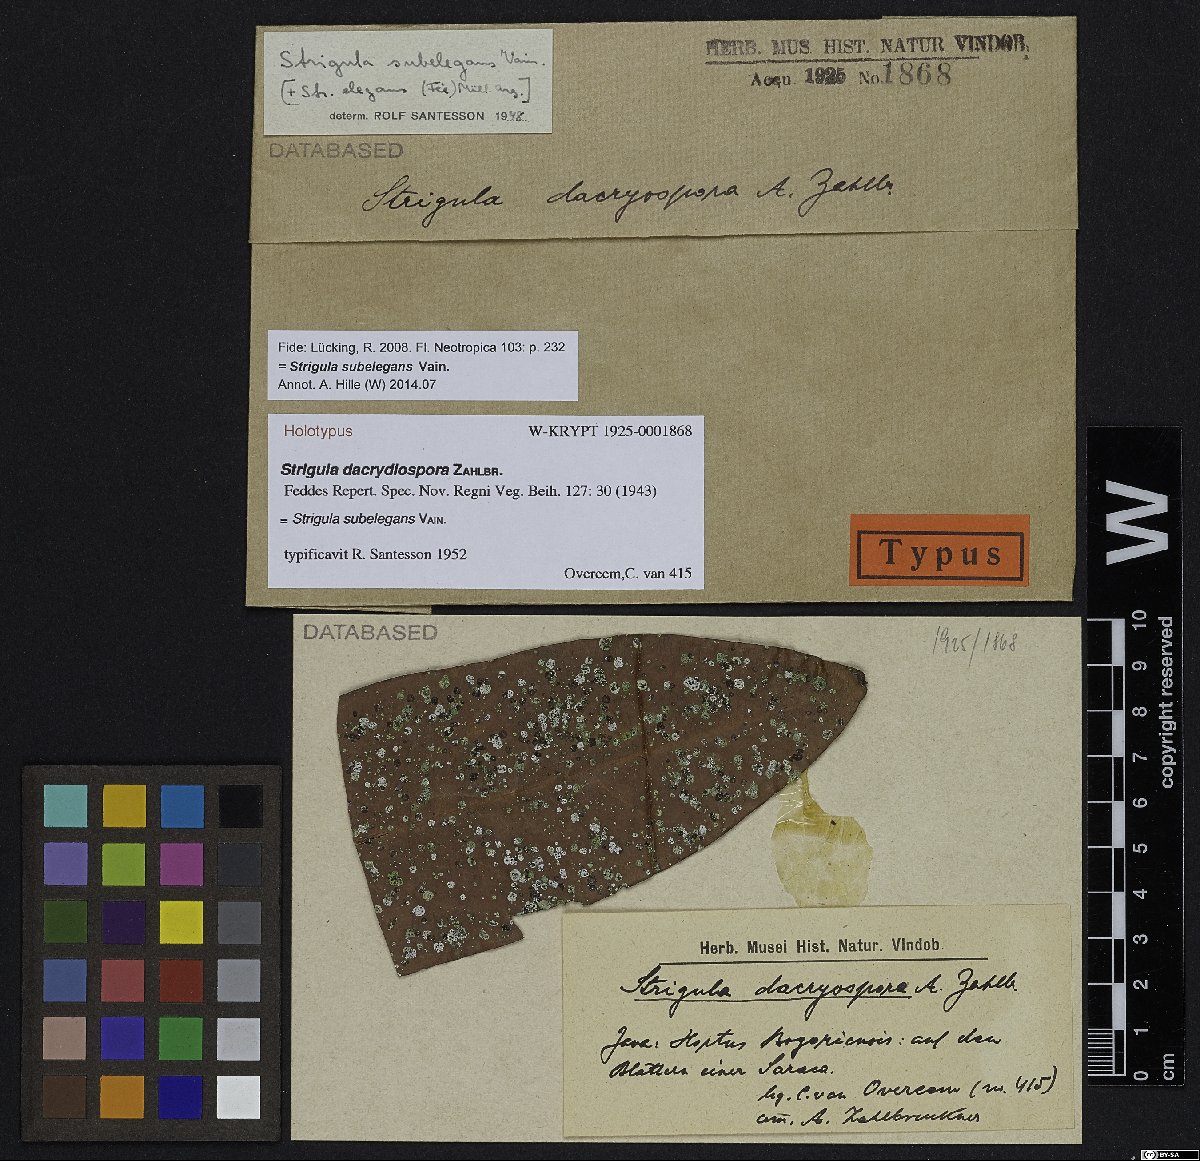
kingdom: Fungi
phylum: Ascomycota
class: Dothideomycetes
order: Strigulales
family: Strigulaceae
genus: Strigula
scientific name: Strigula
